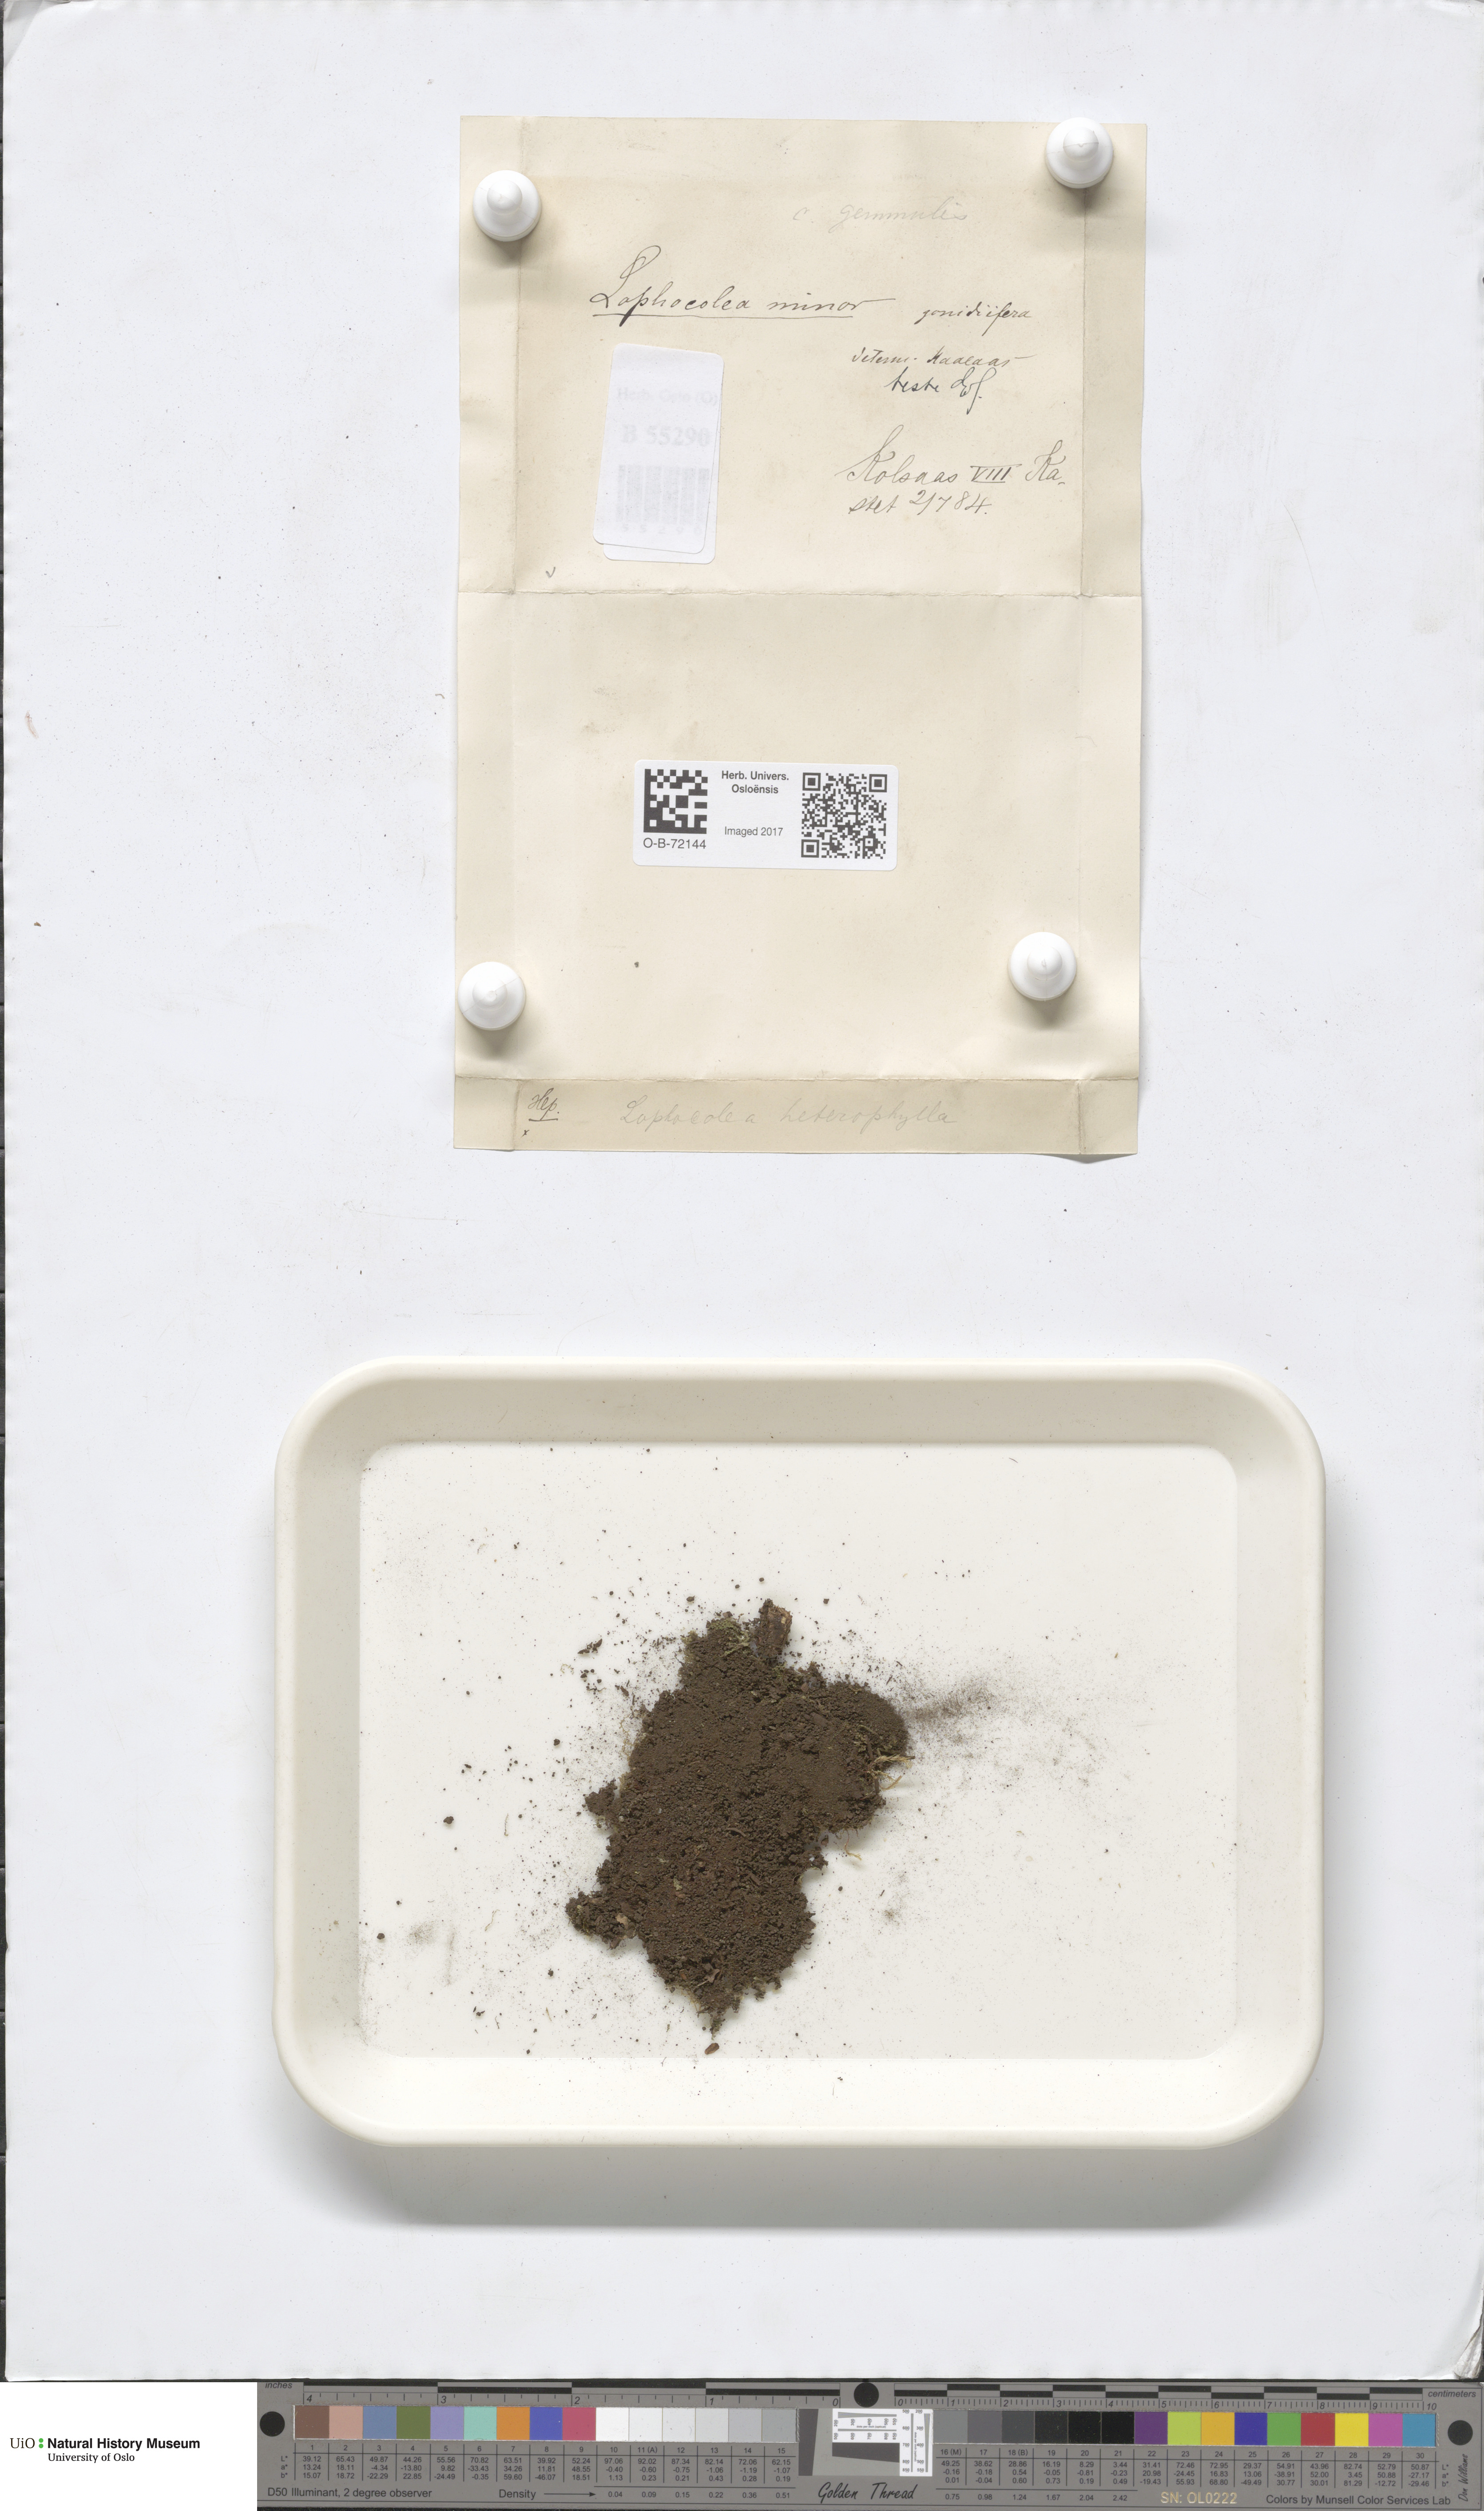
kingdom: Plantae
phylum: Marchantiophyta
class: Jungermanniopsida
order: Jungermanniales
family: Lophocoleaceae
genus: Lophocolea
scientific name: Lophocolea minor
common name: Lesser crestwort
